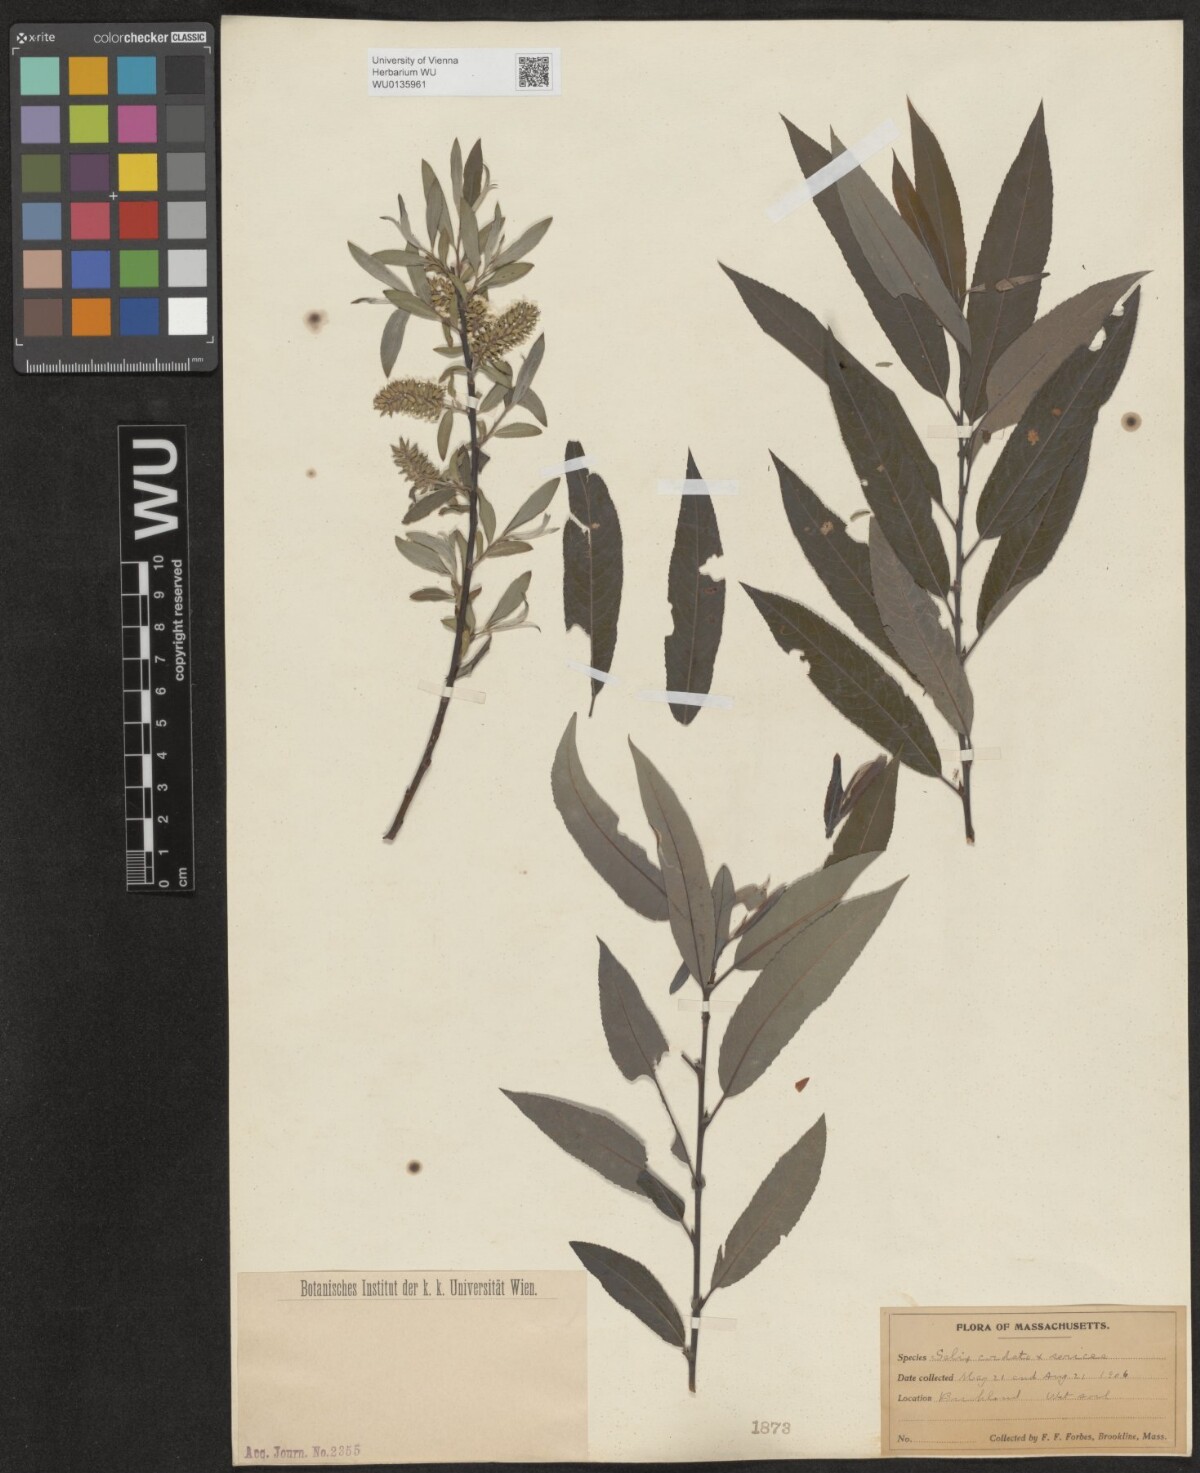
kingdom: Plantae
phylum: Tracheophyta
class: Magnoliopsida
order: Malpighiales
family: Salicaceae
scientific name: Salicaceae
